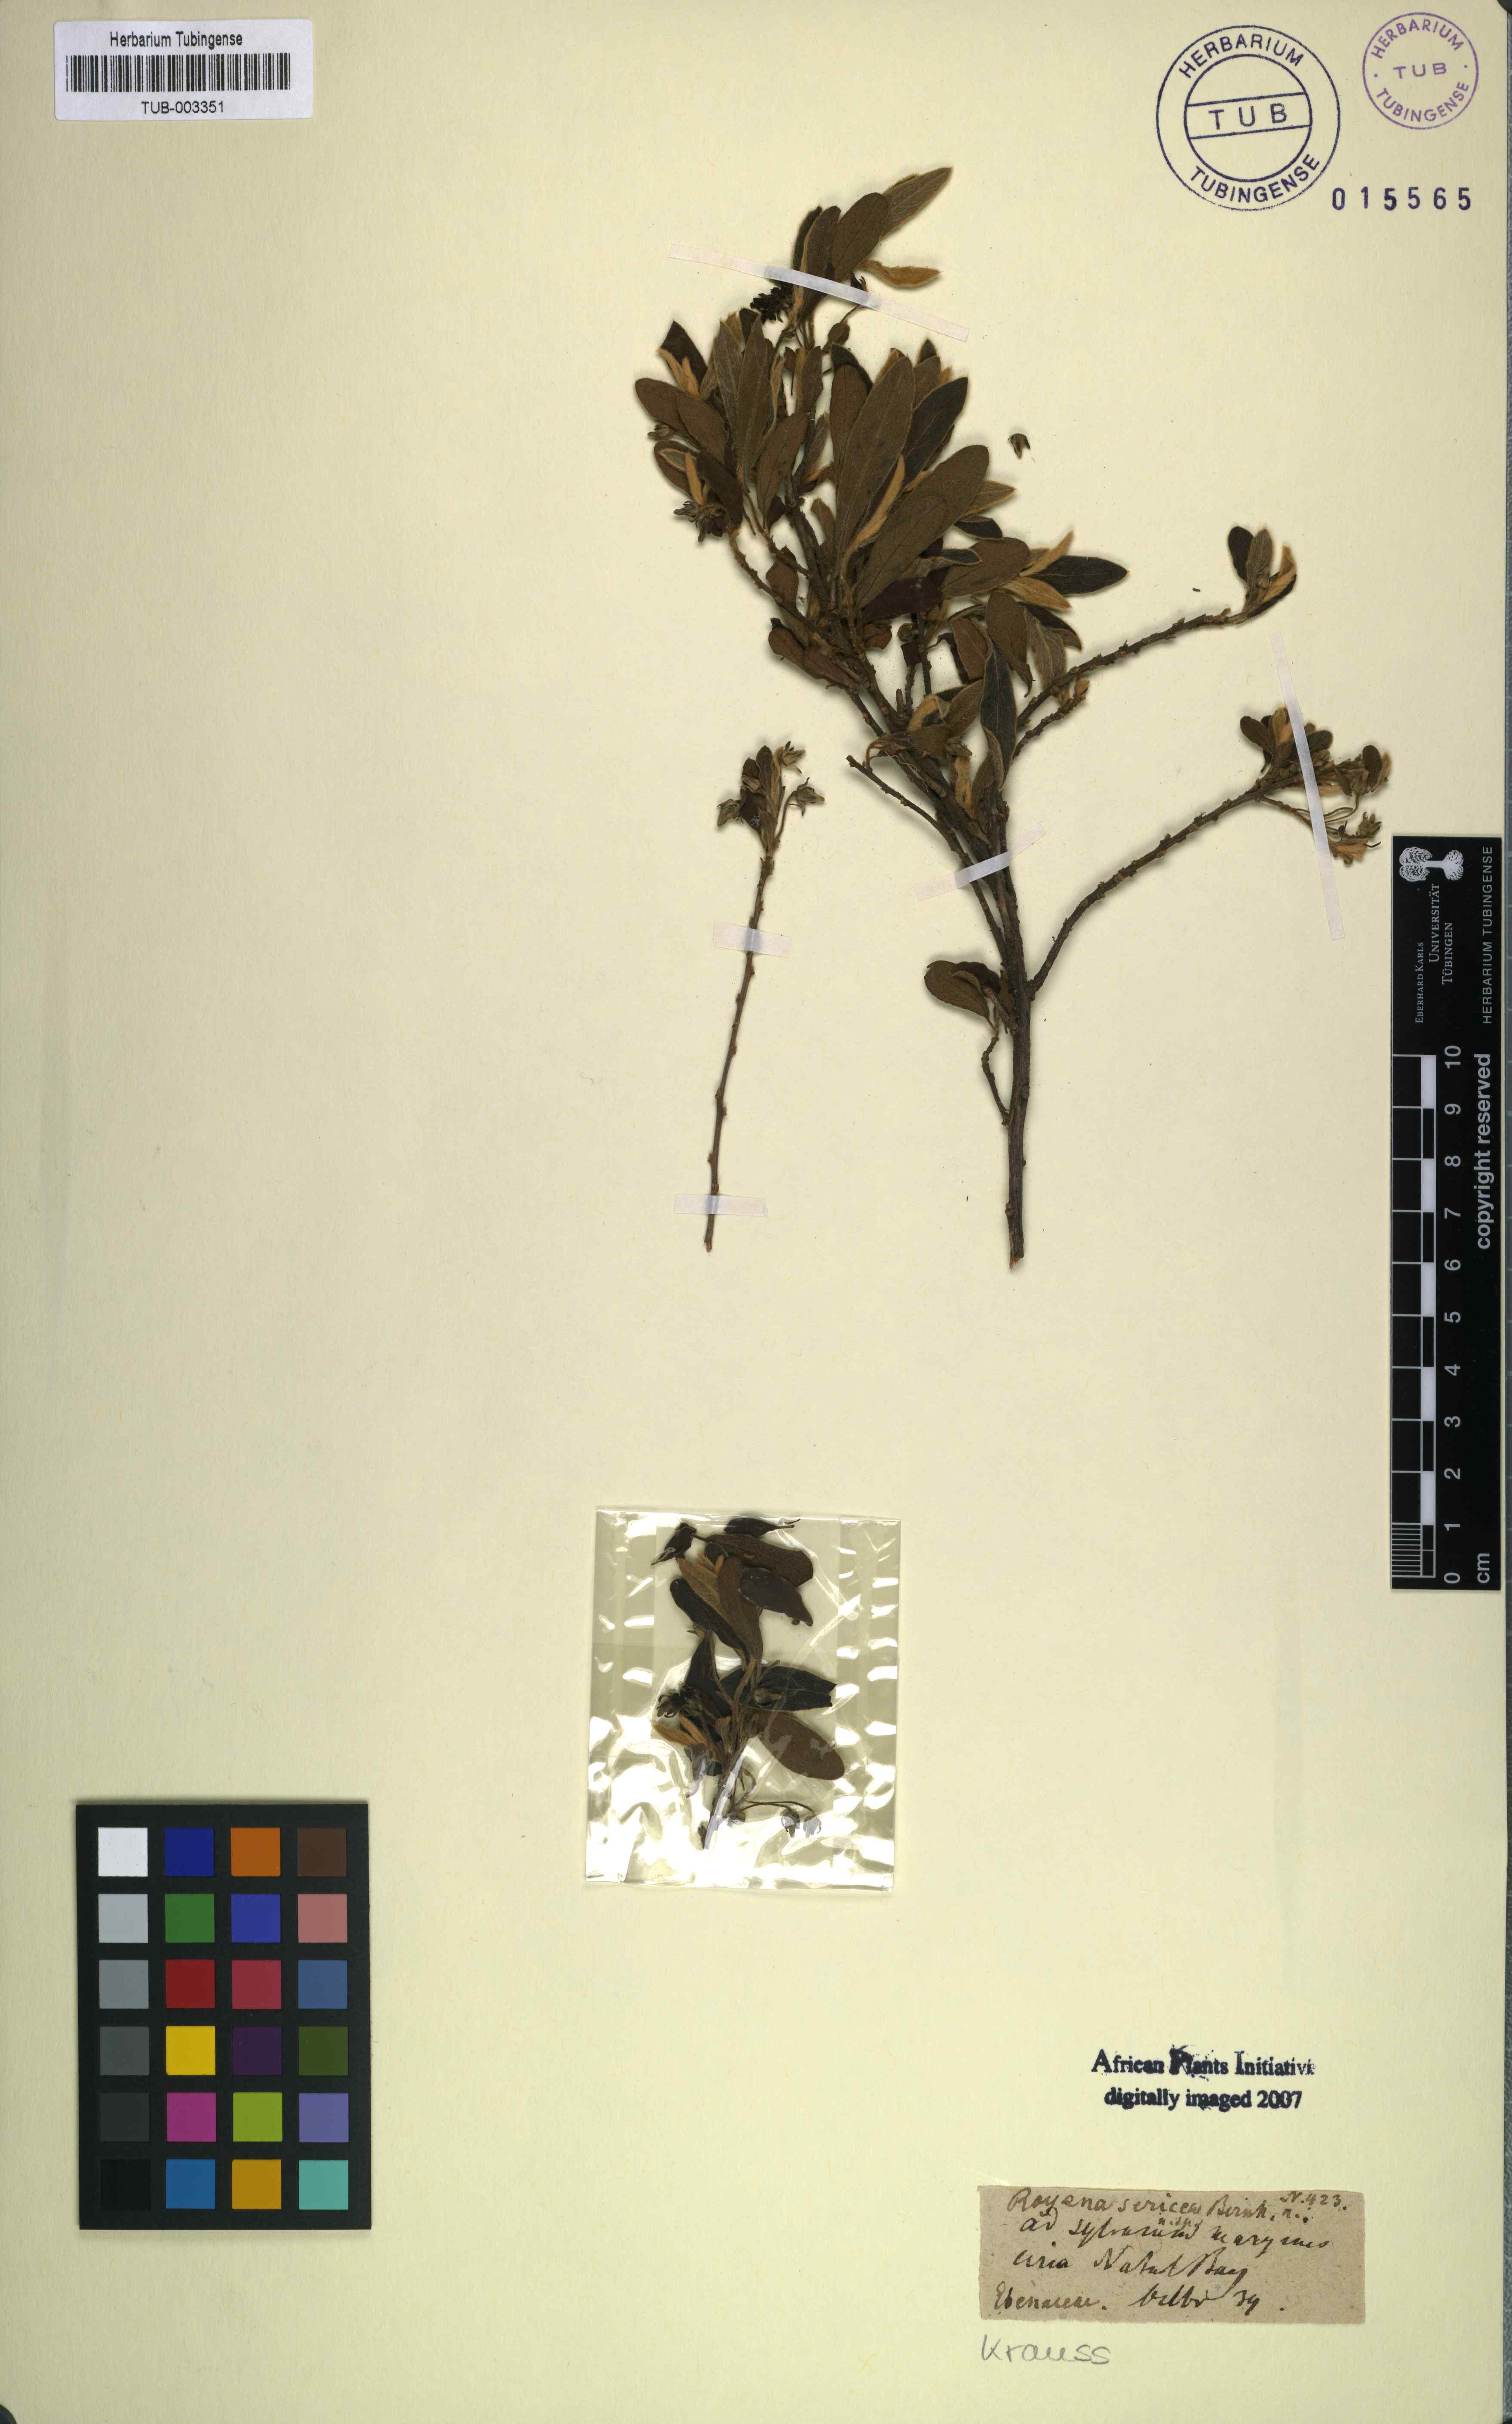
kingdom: Plantae
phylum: Tracheophyta
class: Magnoliopsida
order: Ericales
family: Ebenaceae
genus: Diospyros
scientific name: Diospyros pallens
